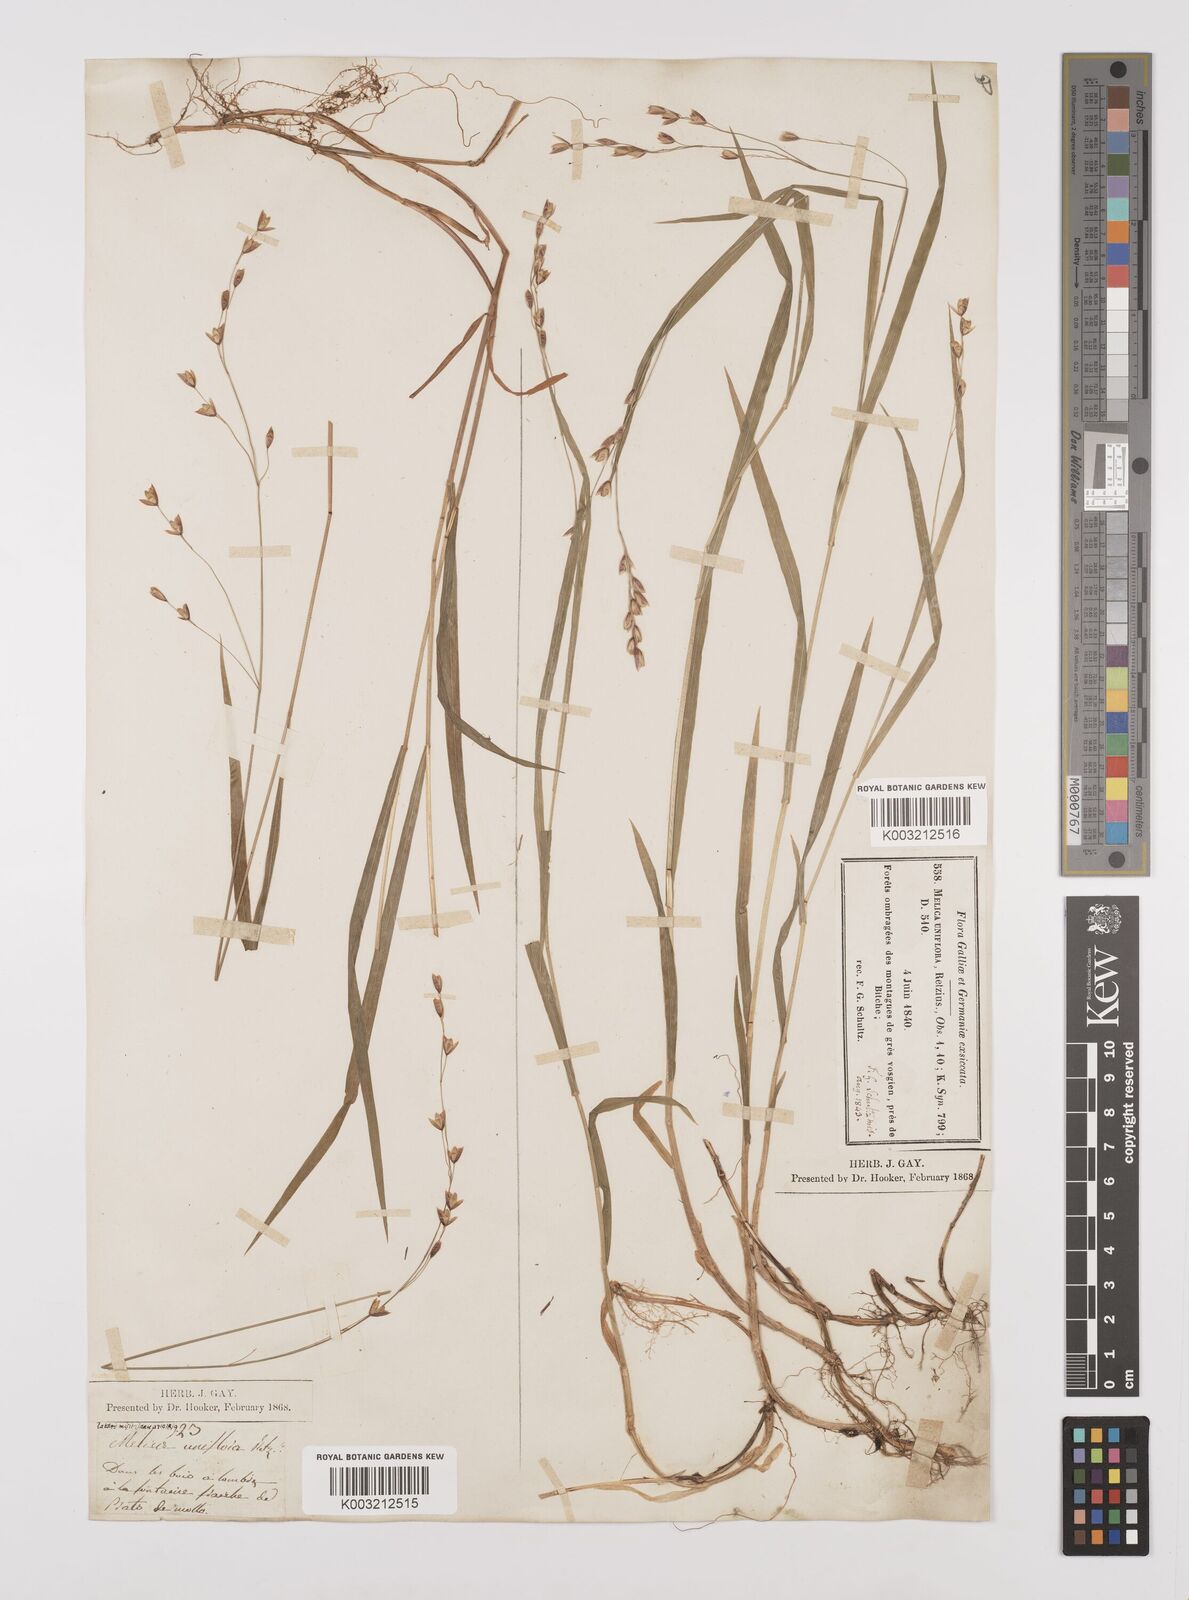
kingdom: Plantae
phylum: Tracheophyta
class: Liliopsida
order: Poales
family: Poaceae
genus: Melica
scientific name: Melica uniflora
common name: Wood melick
